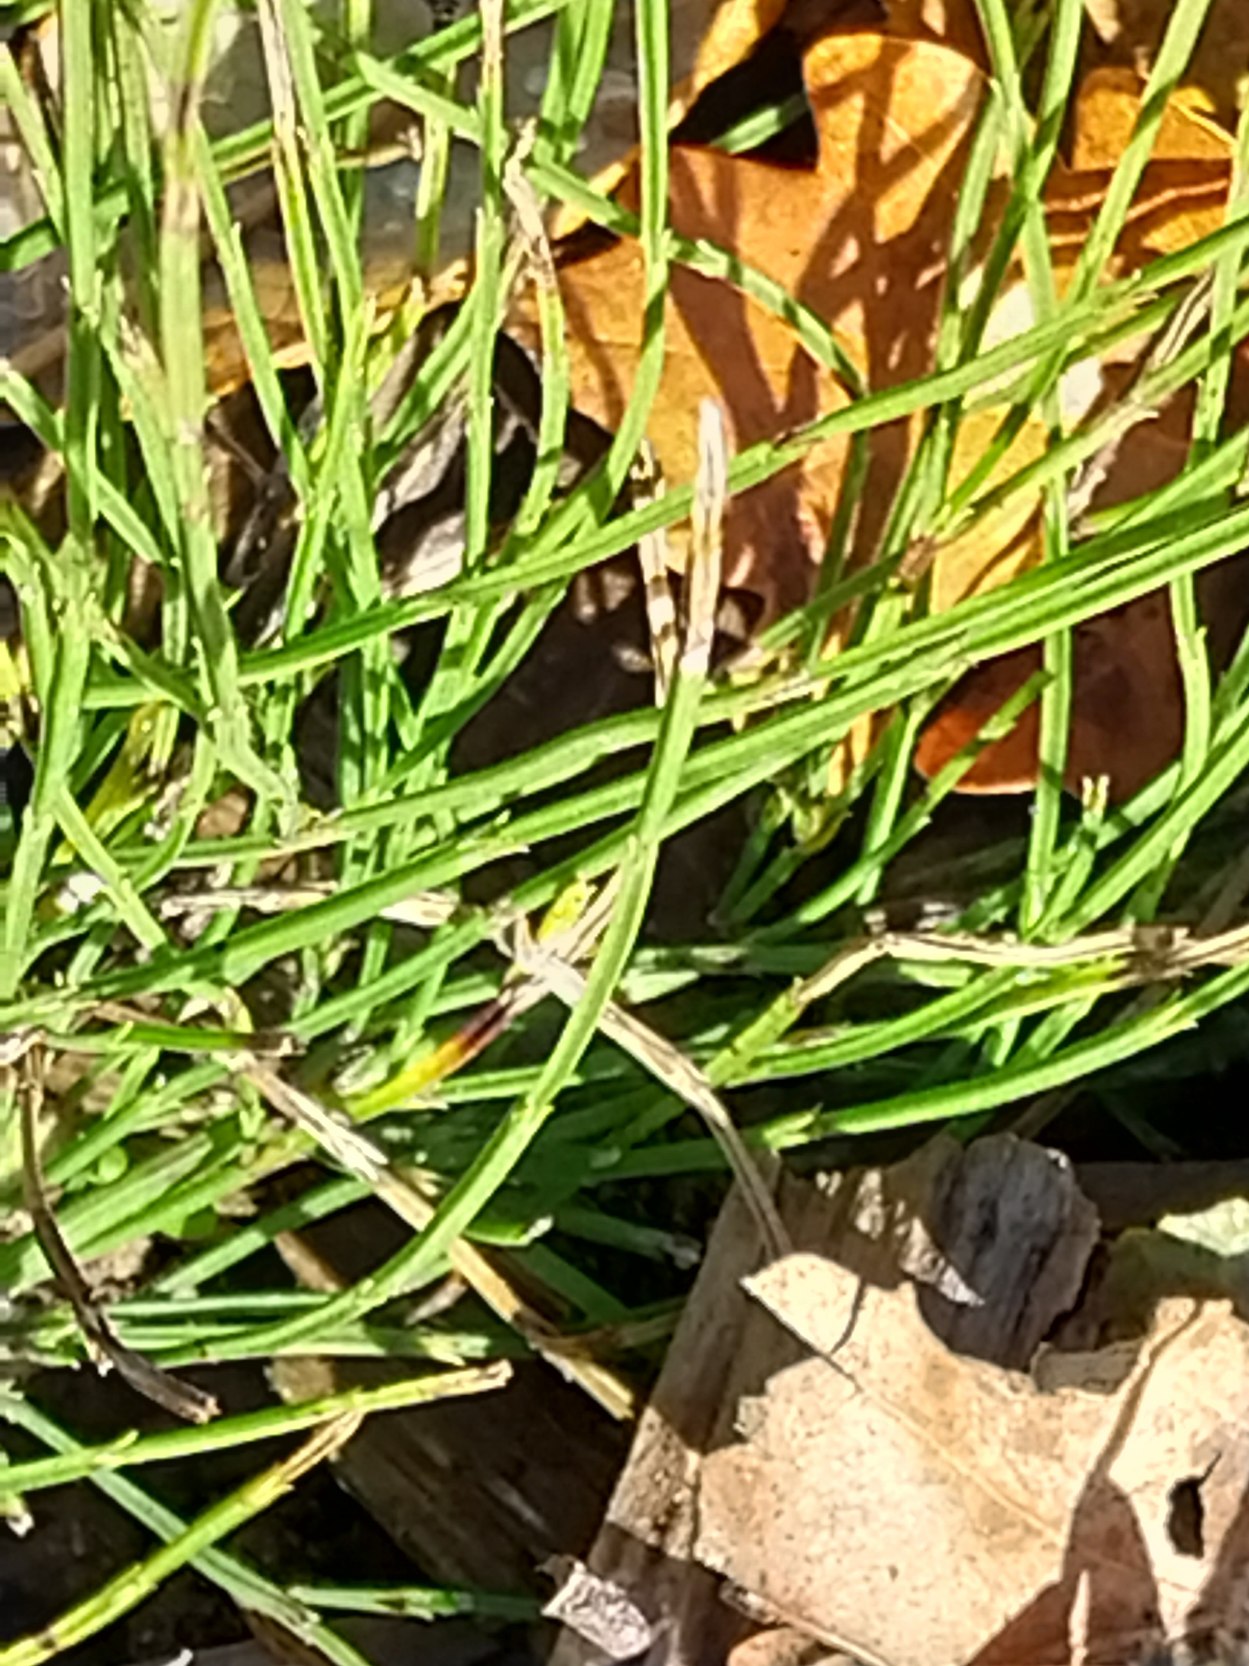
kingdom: Plantae
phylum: Tracheophyta
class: Polypodiopsida
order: Equisetales
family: Equisetaceae
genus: Equisetum
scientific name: Equisetum arvense
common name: Ager-padderok
